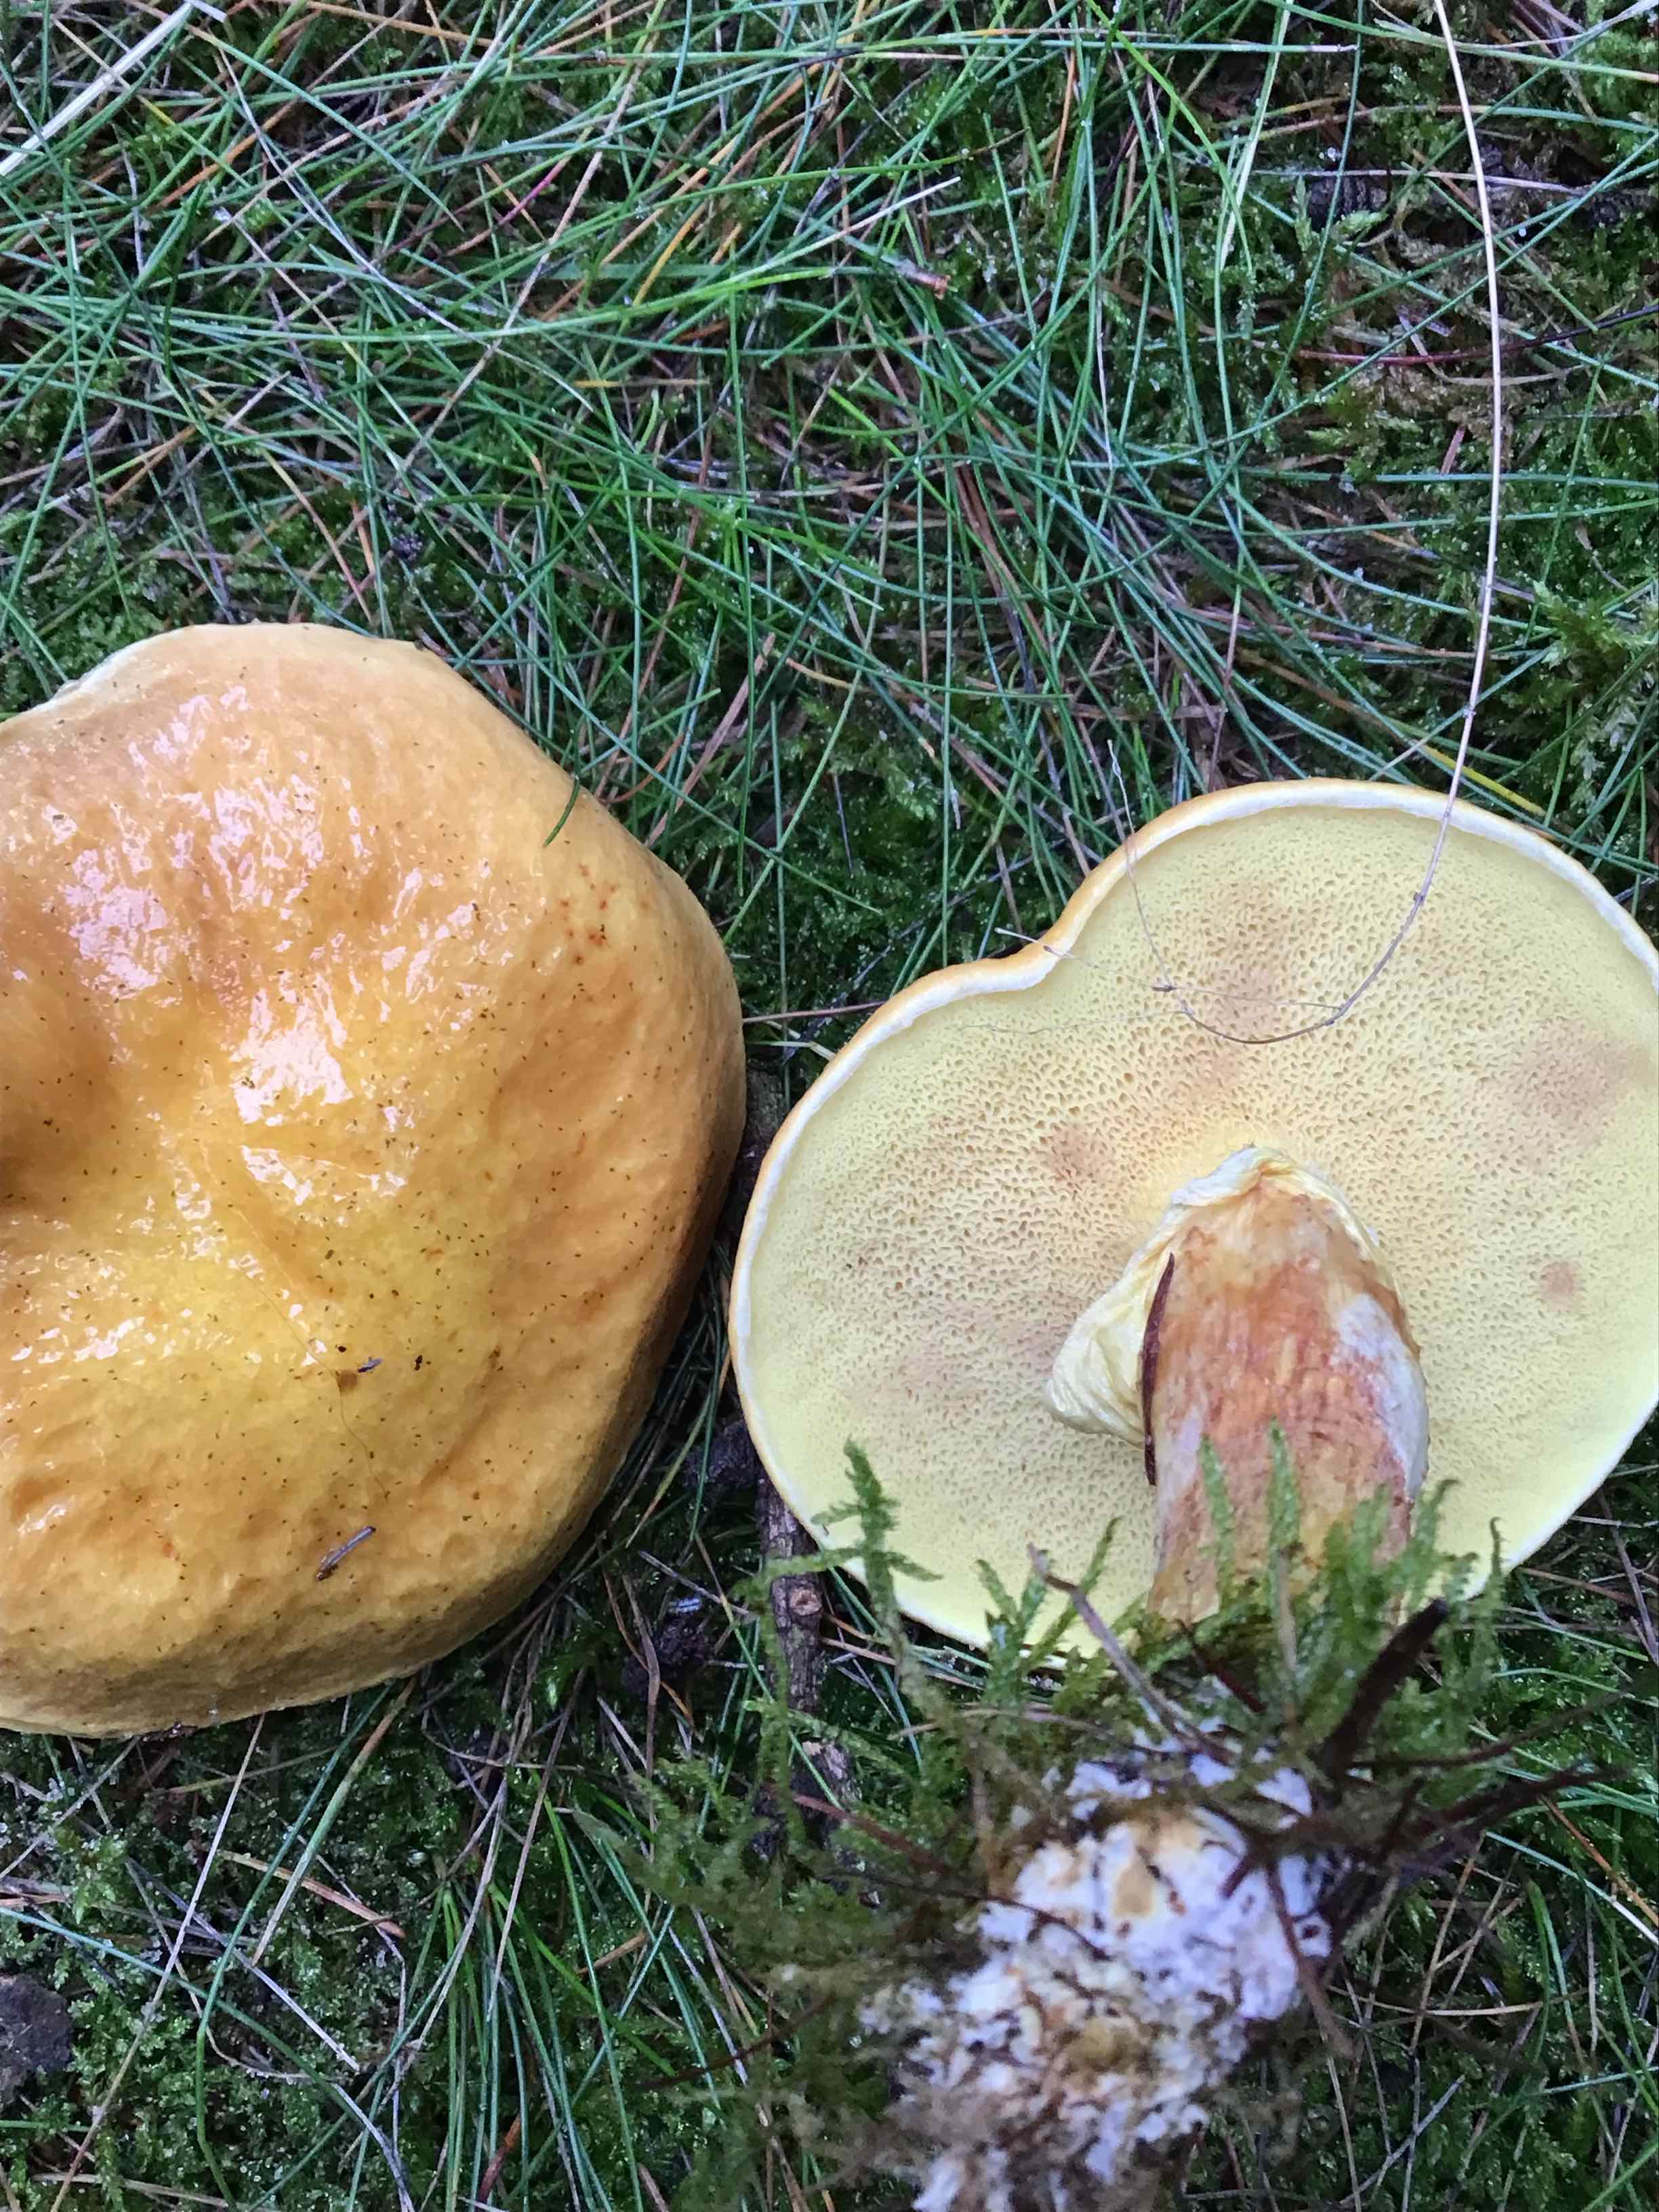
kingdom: Fungi
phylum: Basidiomycota
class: Agaricomycetes
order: Boletales
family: Suillaceae
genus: Suillus
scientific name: Suillus grevillei
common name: lærke-slimrørhat
